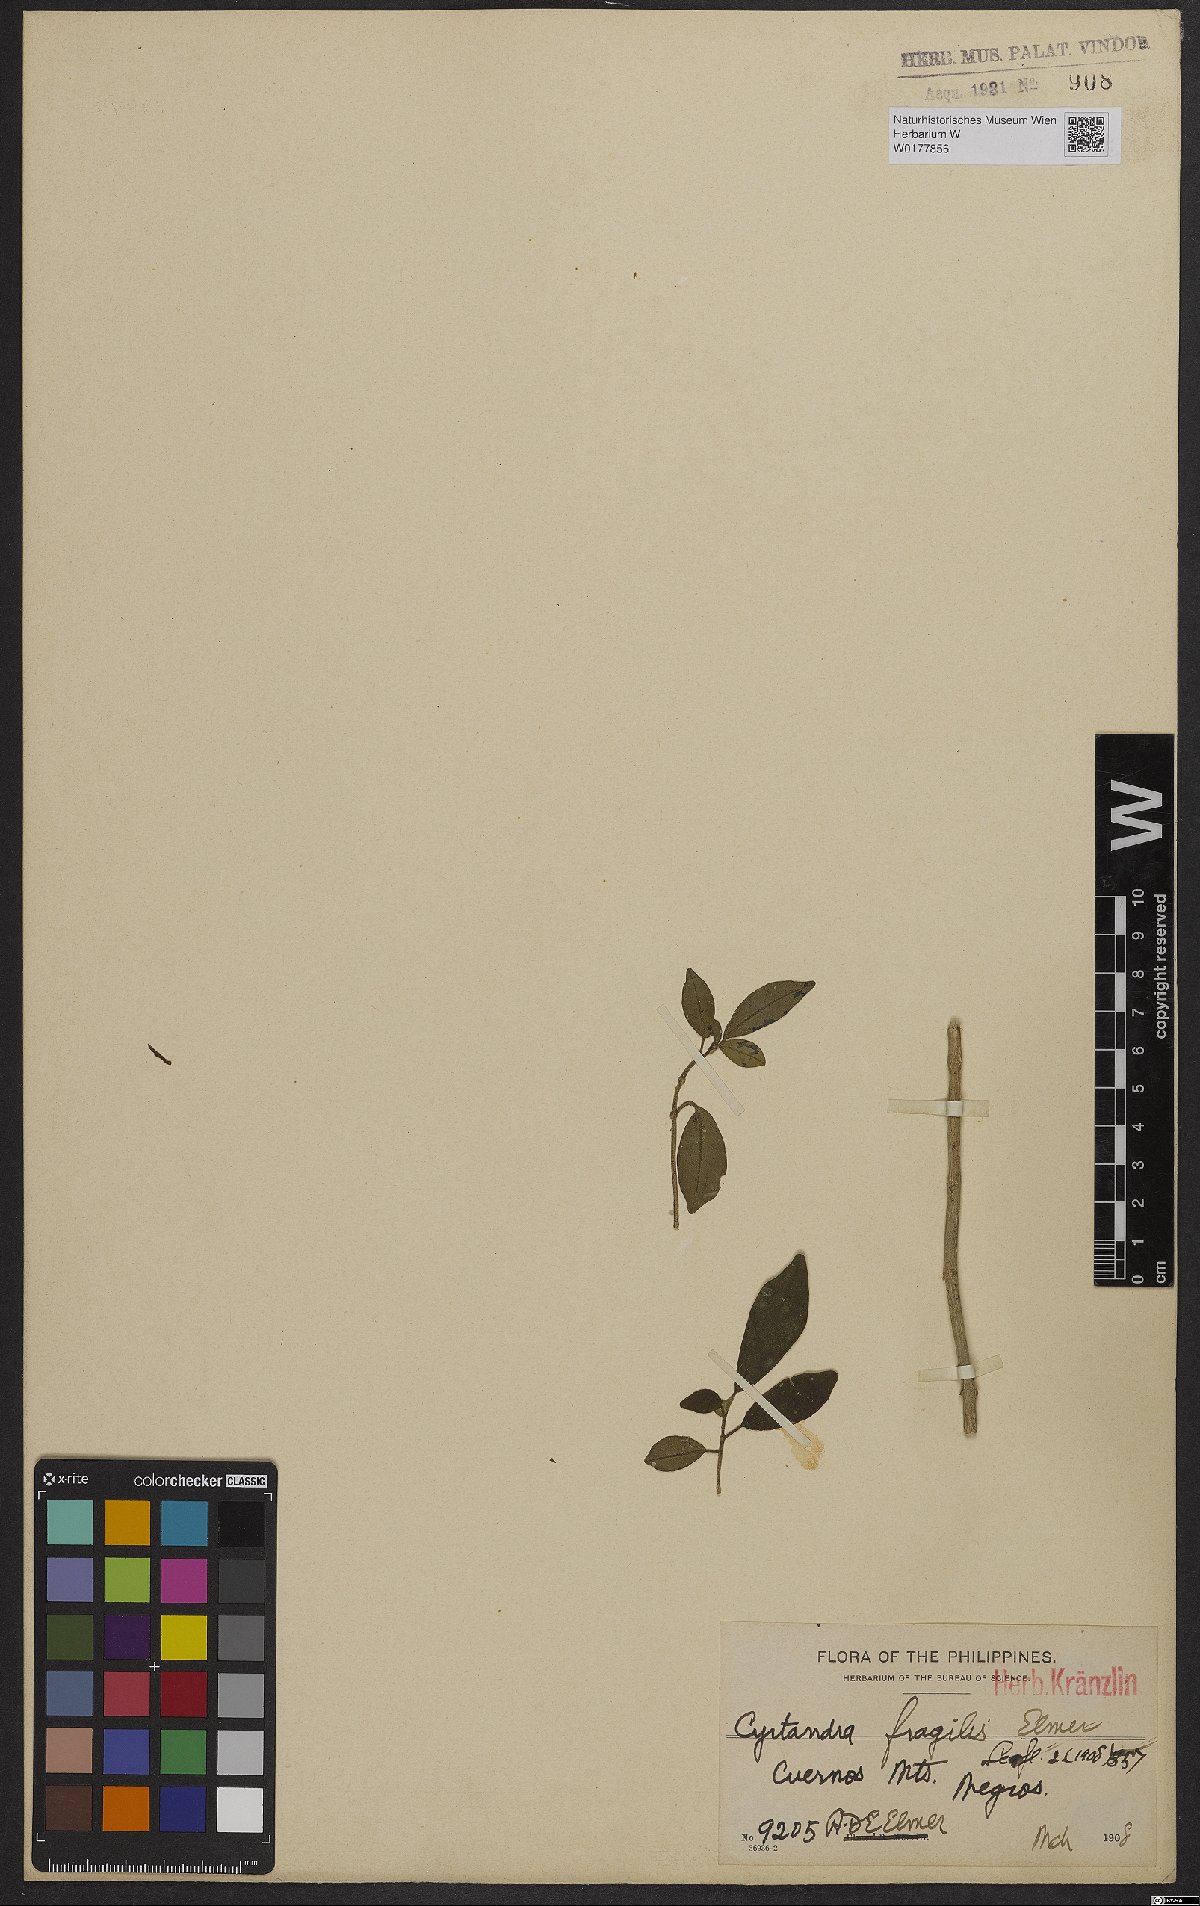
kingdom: Plantae
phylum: Tracheophyta
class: Magnoliopsida
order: Lamiales
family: Gesneriaceae
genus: Cyrtandra
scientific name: Cyrtandra parvifolia
